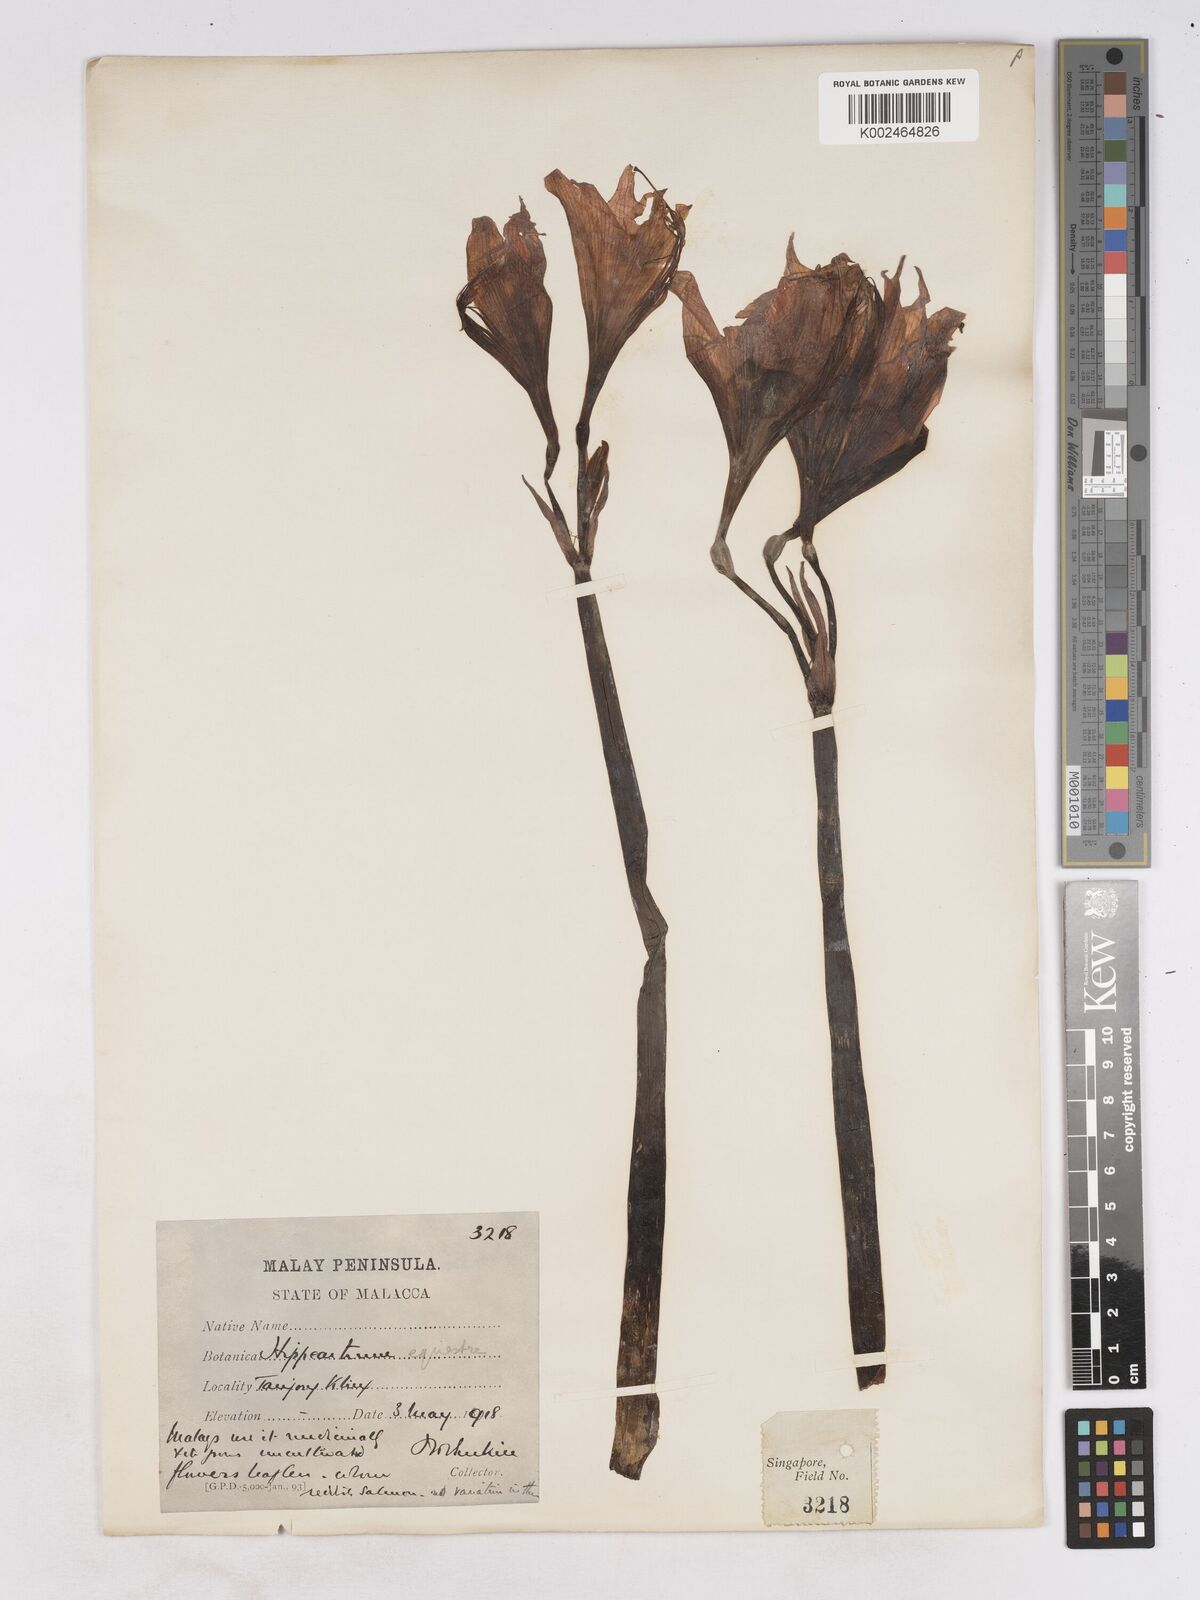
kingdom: Plantae
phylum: Tracheophyta
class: Liliopsida
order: Asparagales
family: Amaryllidaceae
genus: Hippeastrum
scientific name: Hippeastrum puniceum
